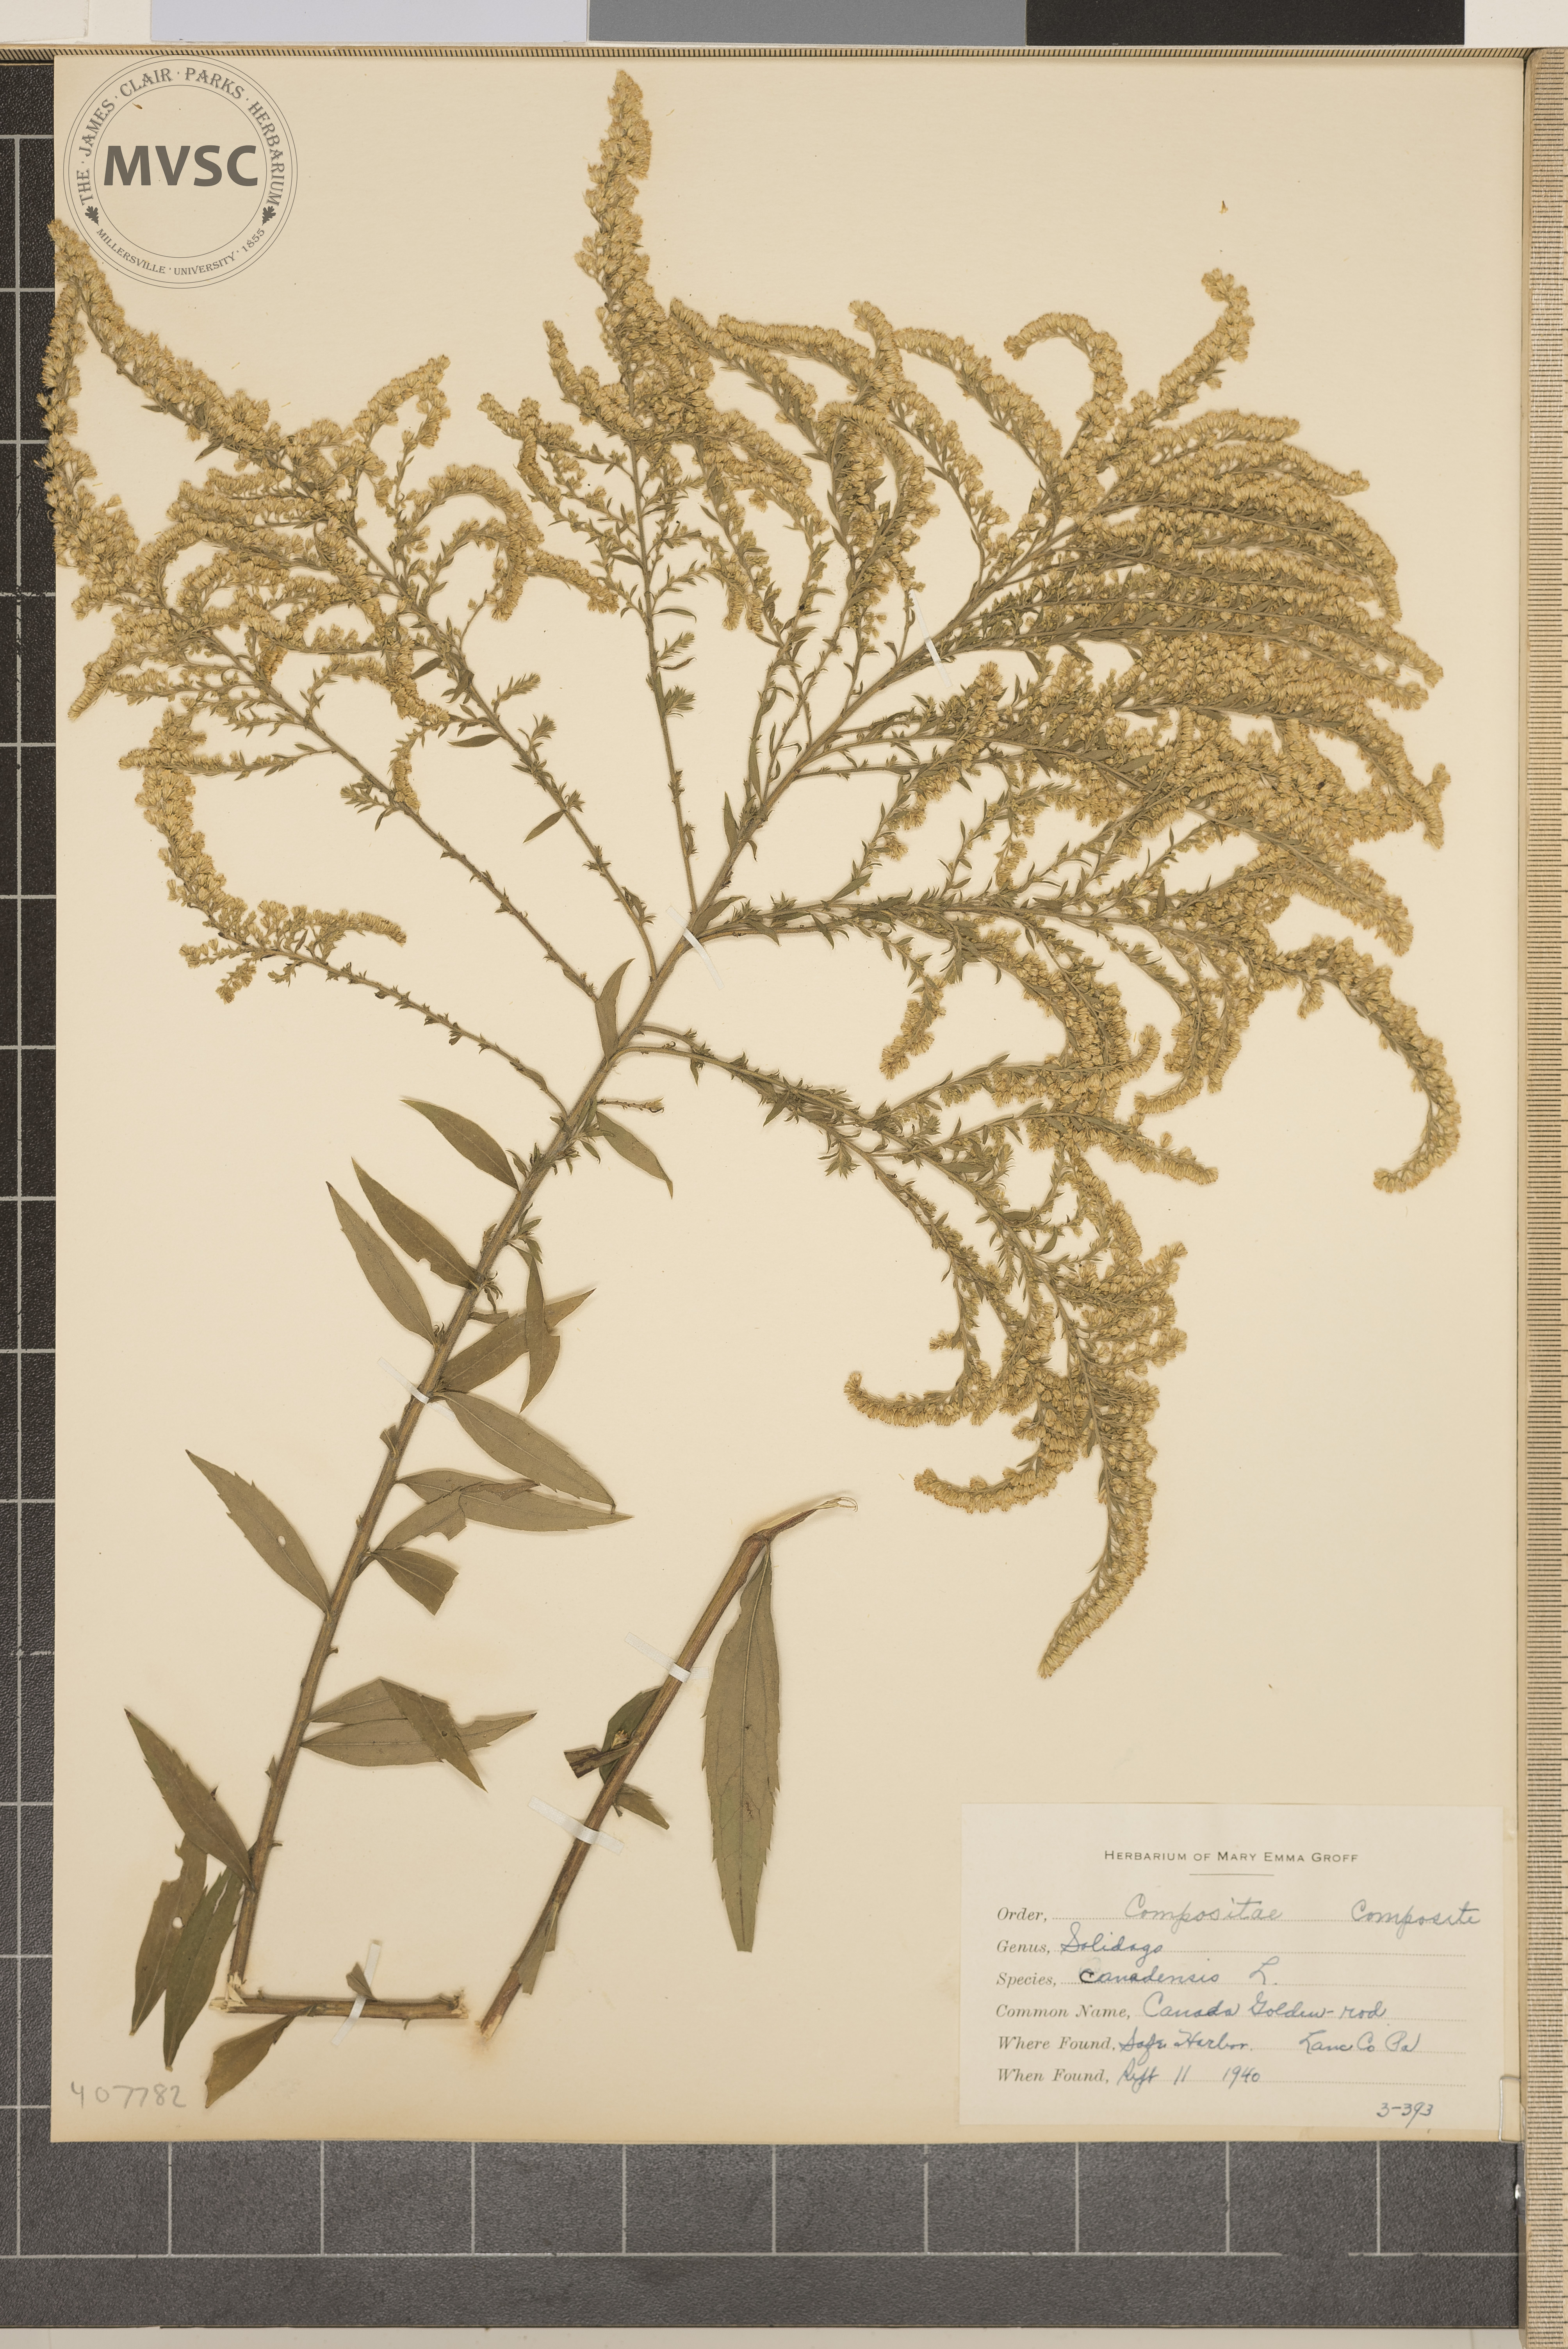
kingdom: Plantae
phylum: Tracheophyta
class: Magnoliopsida
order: Asterales
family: Asteraceae
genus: Solidago
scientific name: Solidago canadensis
